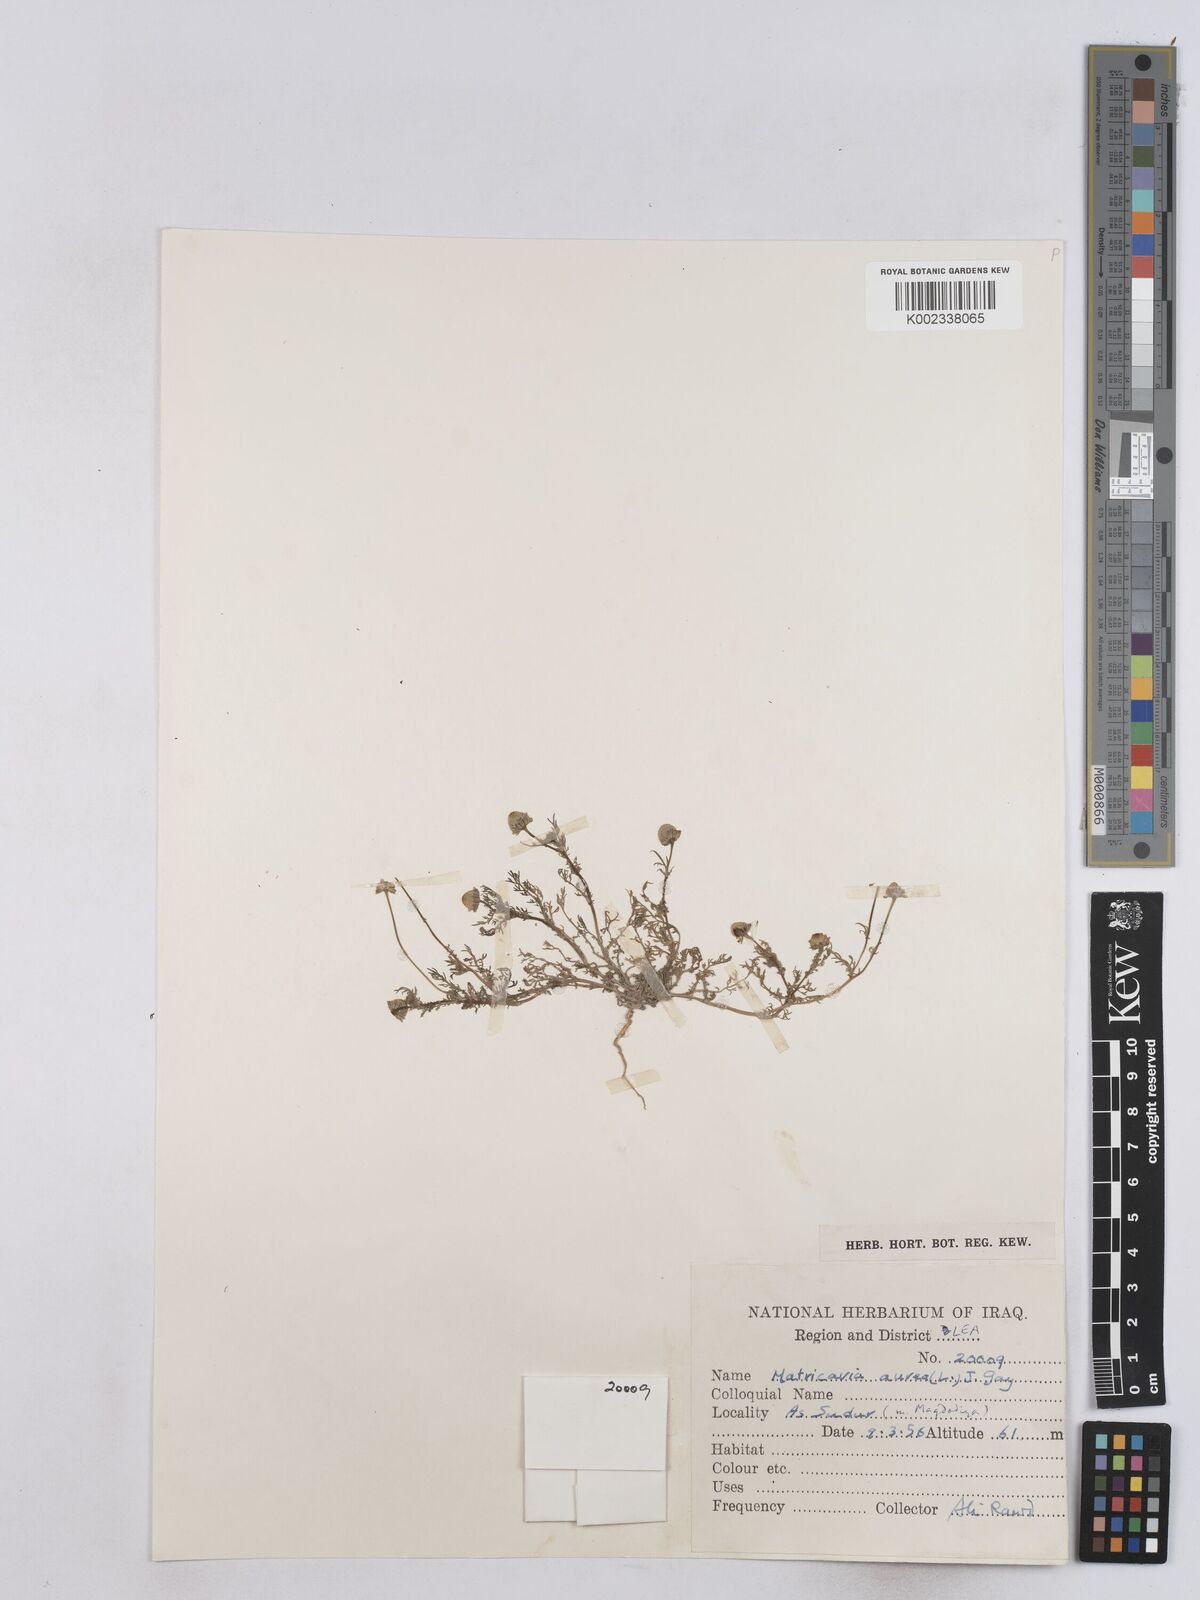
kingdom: Plantae
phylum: Tracheophyta
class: Magnoliopsida
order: Asterales
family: Asteraceae
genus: Matricaria
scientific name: Matricaria aurea
